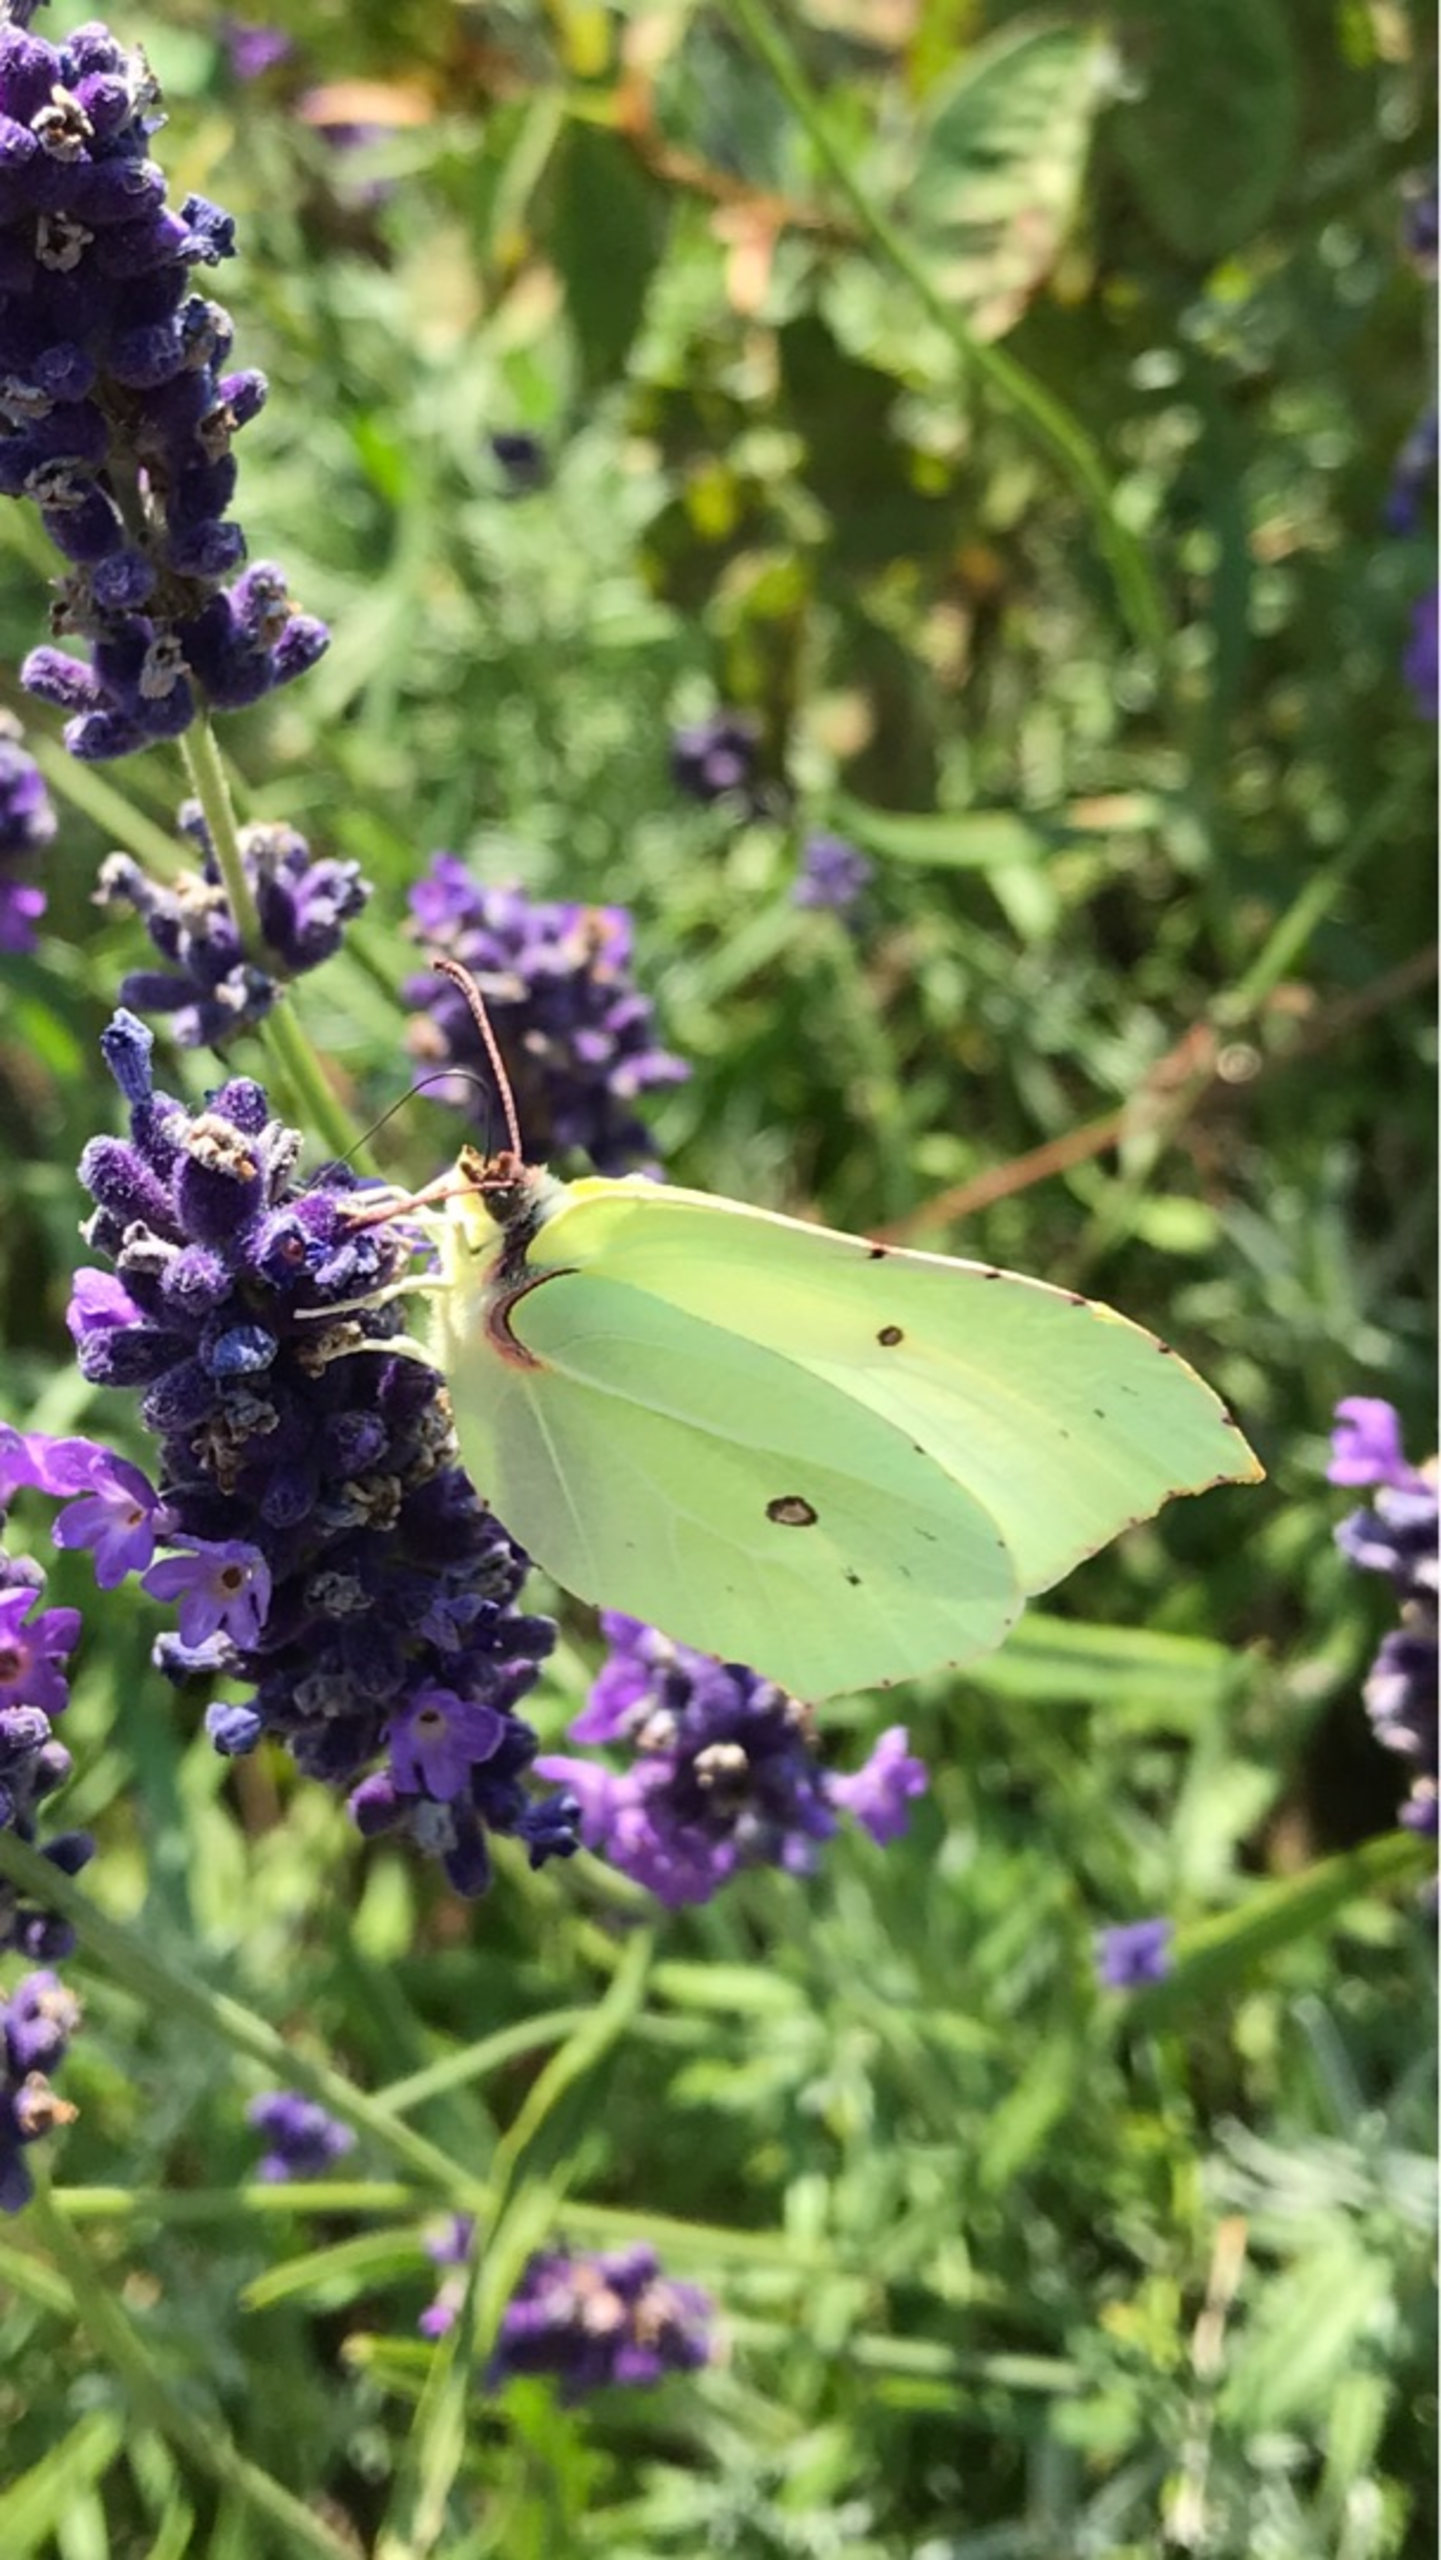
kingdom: Animalia
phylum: Arthropoda
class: Insecta
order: Lepidoptera
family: Pieridae
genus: Gonepteryx
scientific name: Gonepteryx rhamni
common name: Citronsommerfugl
